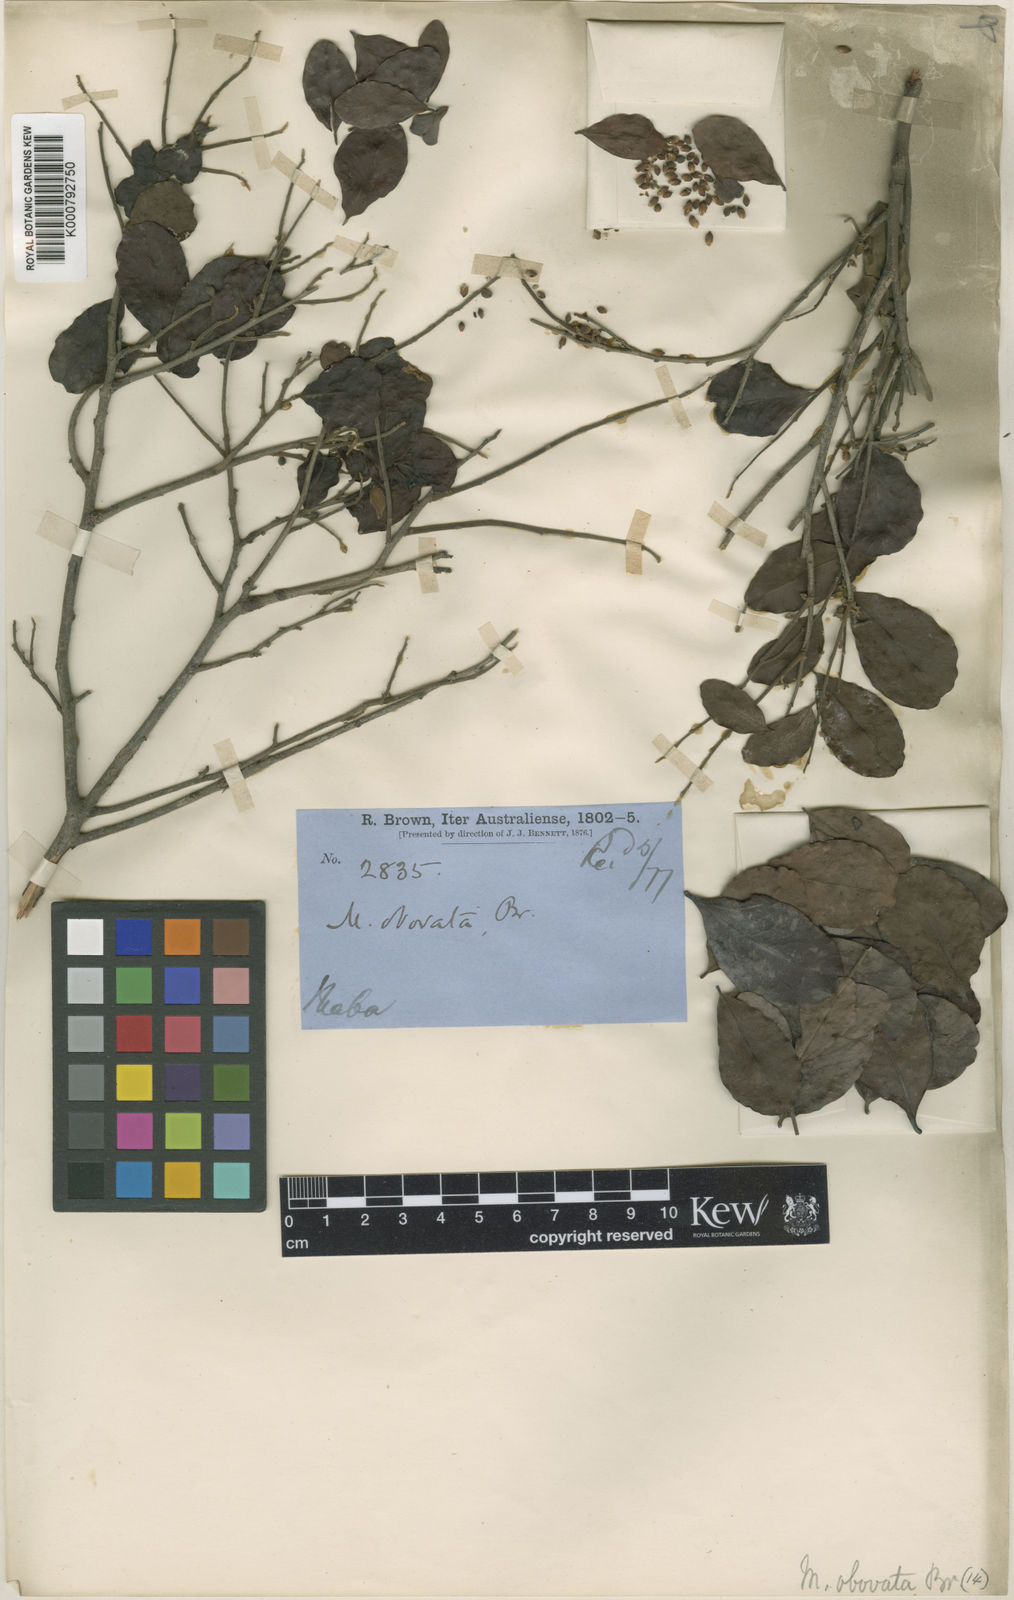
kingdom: Plantae
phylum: Tracheophyta
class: Magnoliopsida
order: Ericales
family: Ebenaceae
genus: Diospyros
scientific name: Diospyros humilis
